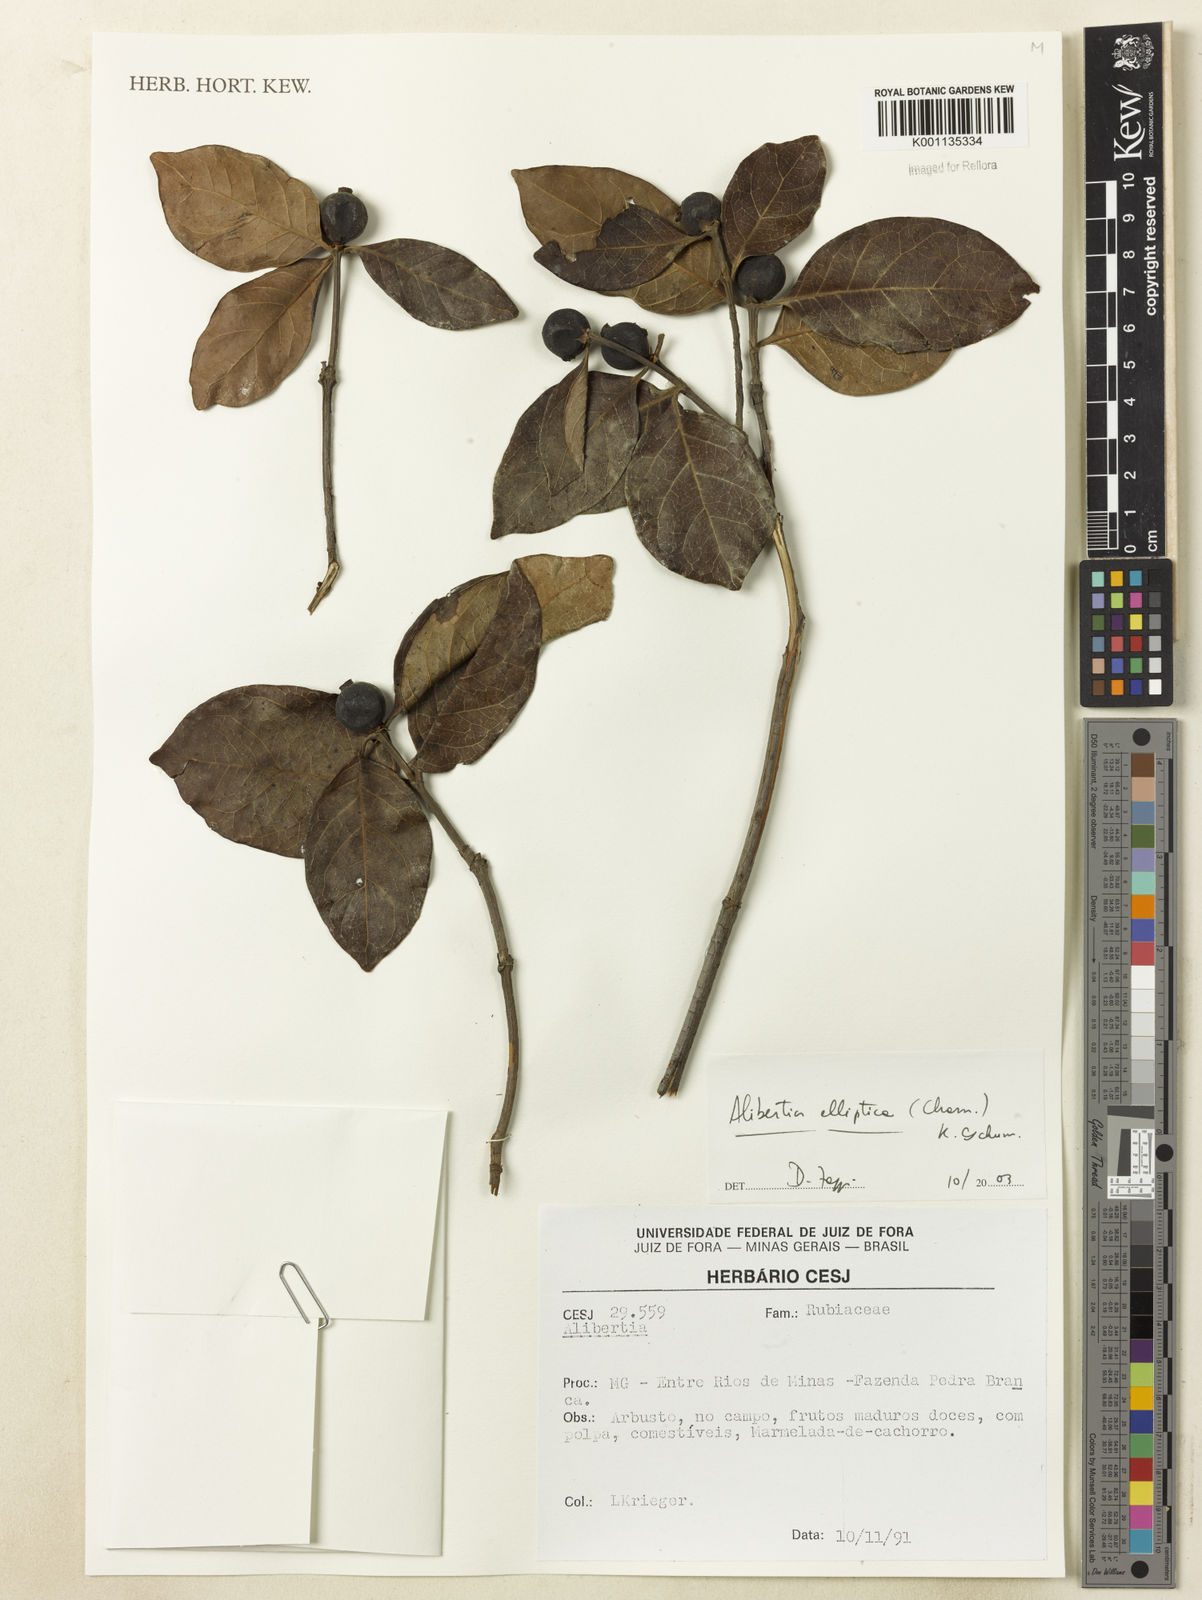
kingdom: Plantae
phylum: Tracheophyta
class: Magnoliopsida
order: Gentianales
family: Rubiaceae
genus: Cordiera
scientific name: Cordiera elliptica
